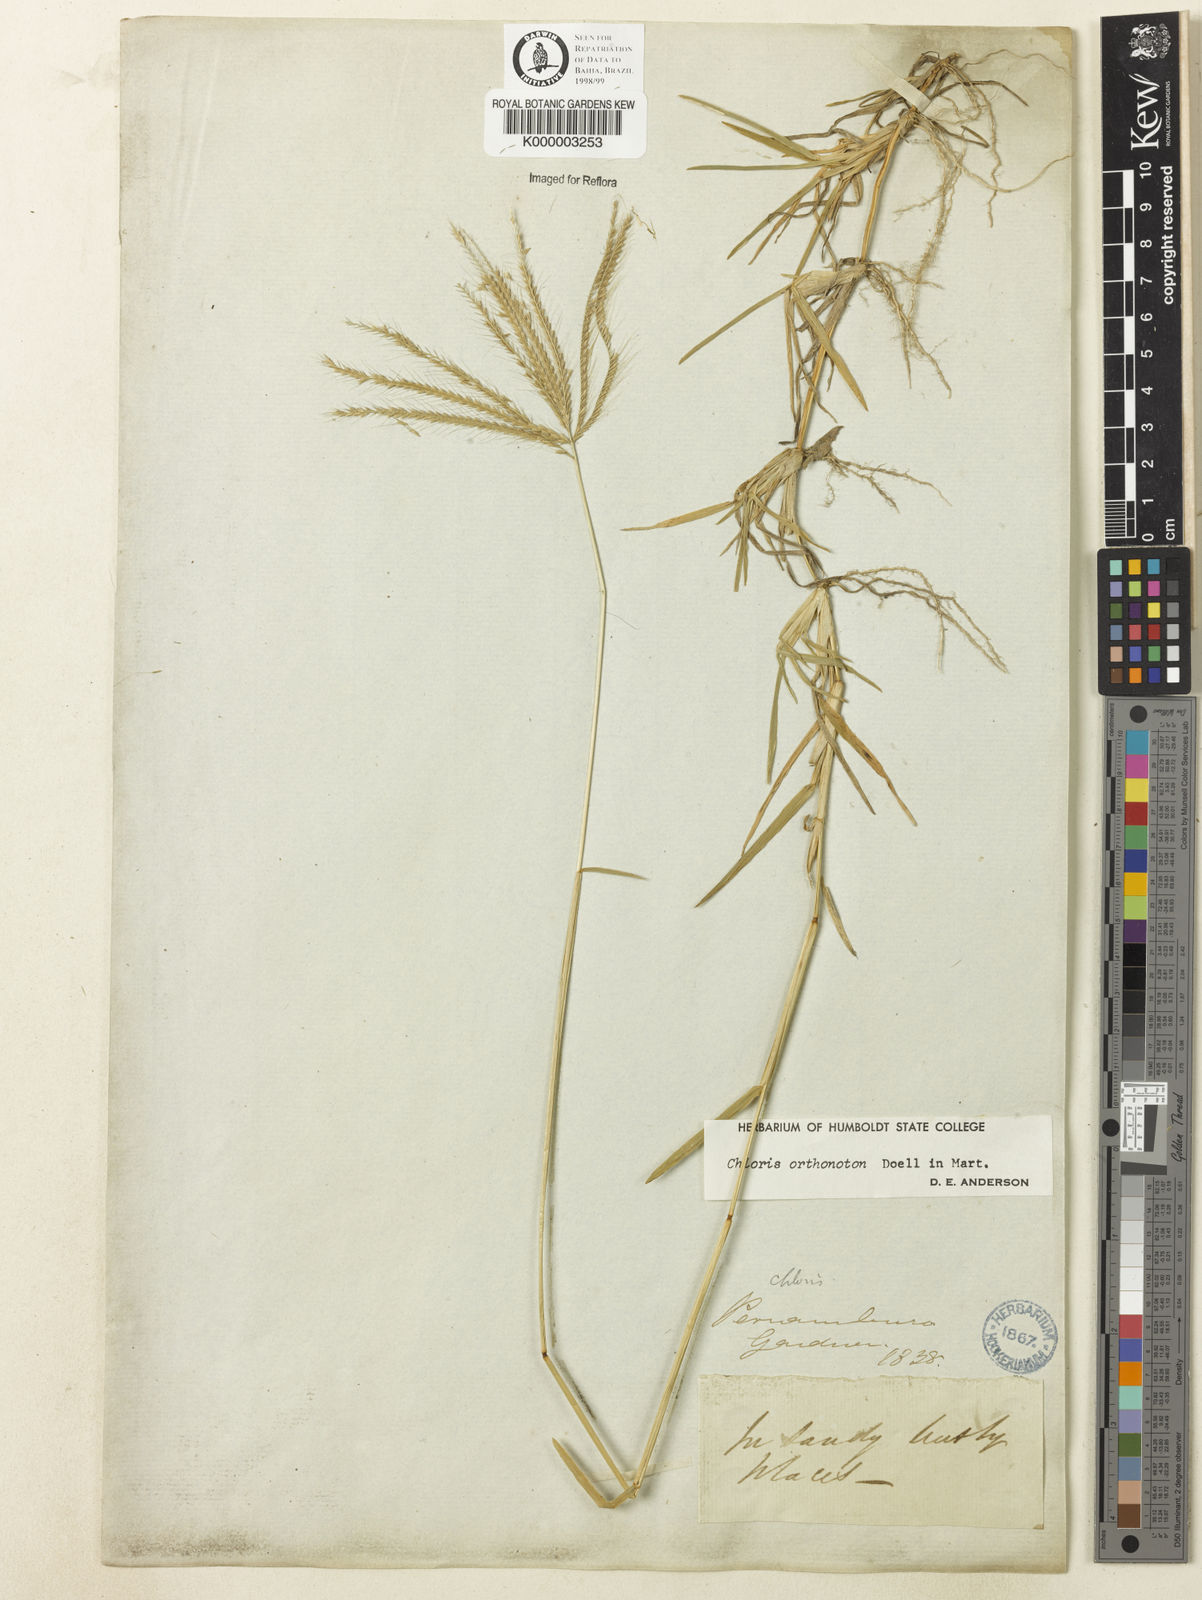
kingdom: Plantae
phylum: Tracheophyta
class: Liliopsida
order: Poales
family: Poaceae
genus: Chloris
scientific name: Chloris
